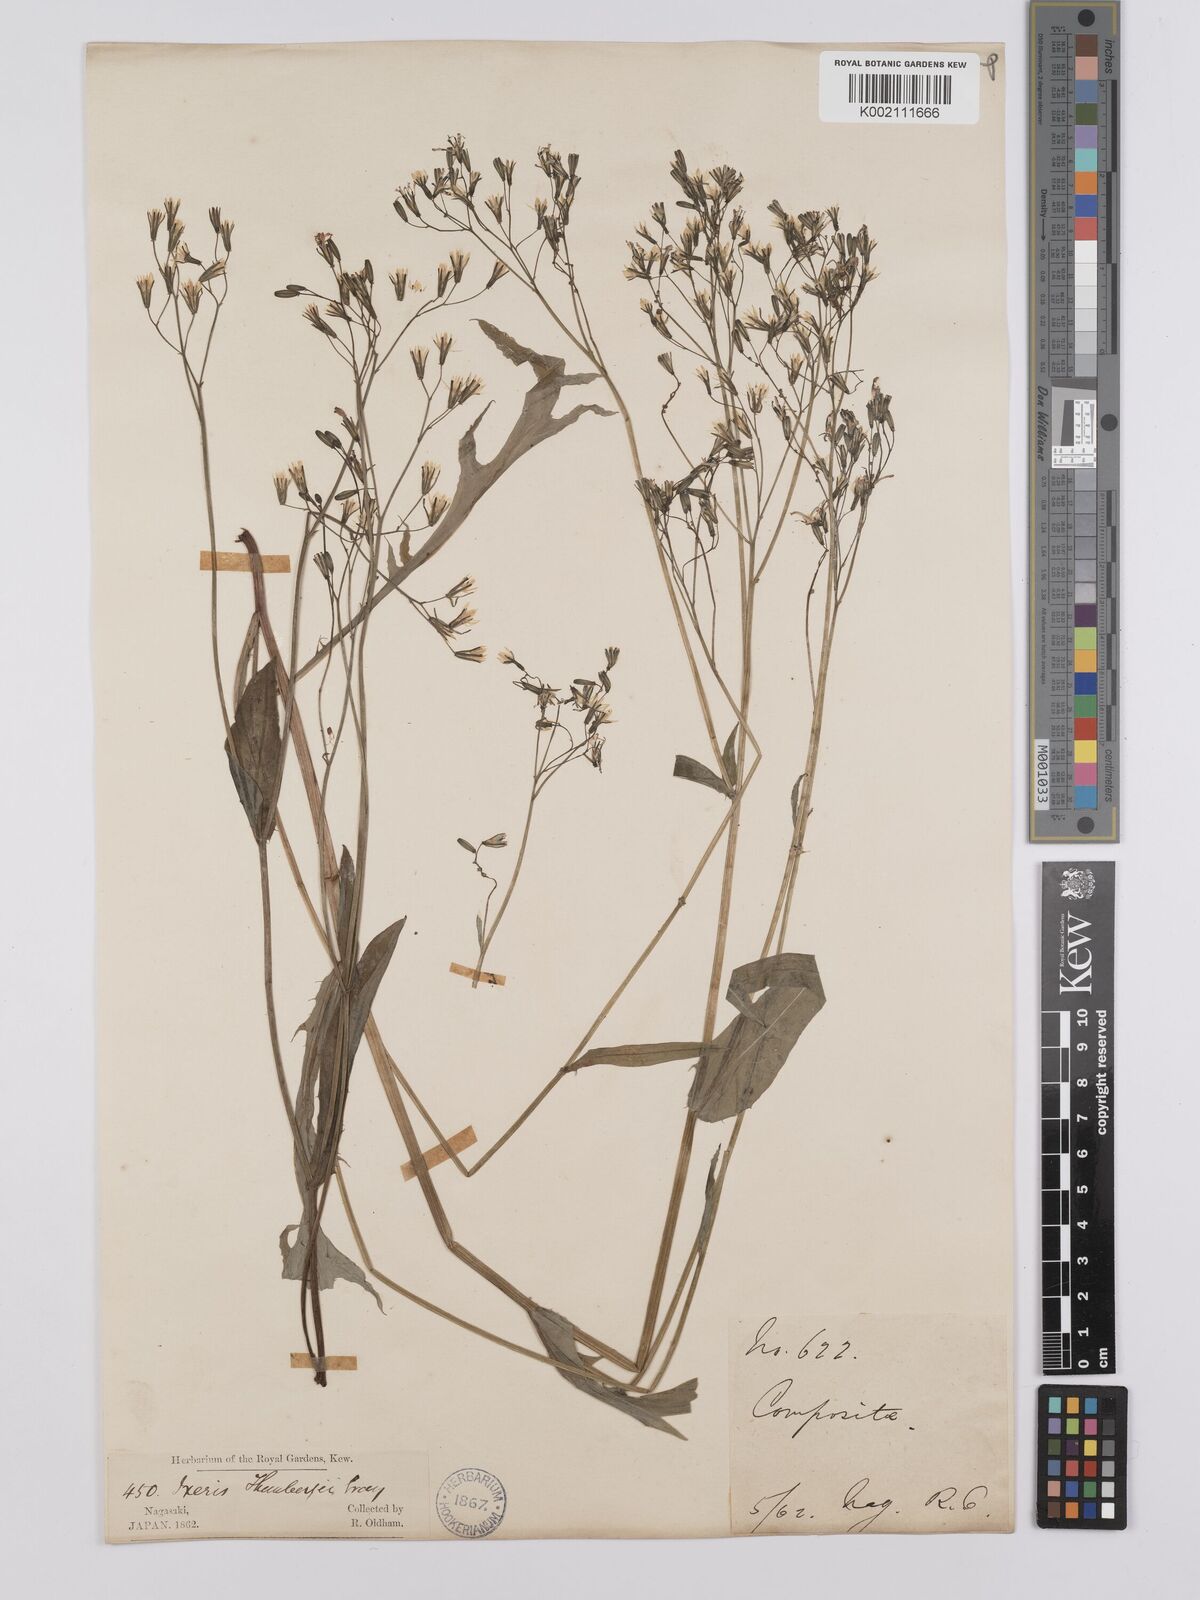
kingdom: Plantae
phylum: Tracheophyta
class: Magnoliopsida
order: Asterales
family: Asteraceae
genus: Ixeridium
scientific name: Ixeridium dentatum
